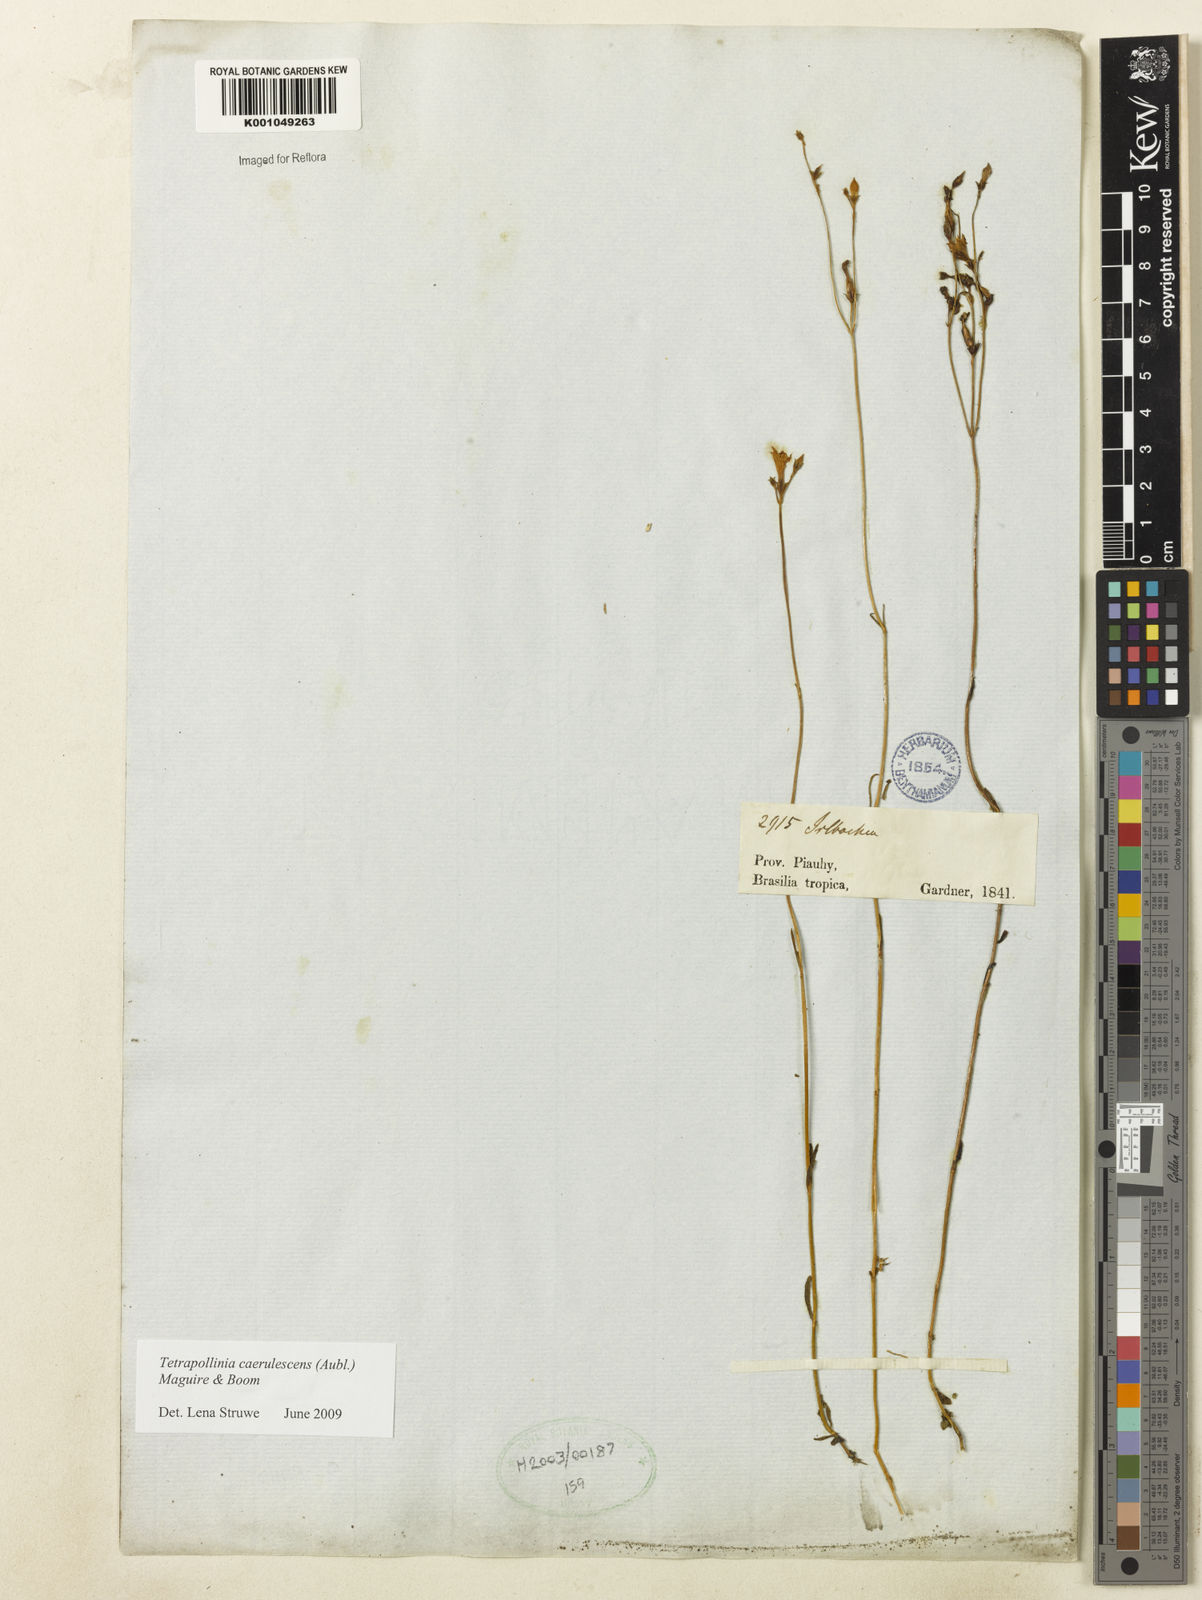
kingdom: Plantae
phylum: Tracheophyta
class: Magnoliopsida
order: Gentianales
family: Gentianaceae
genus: Tetrapollinia
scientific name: Tetrapollinia caerulescens
